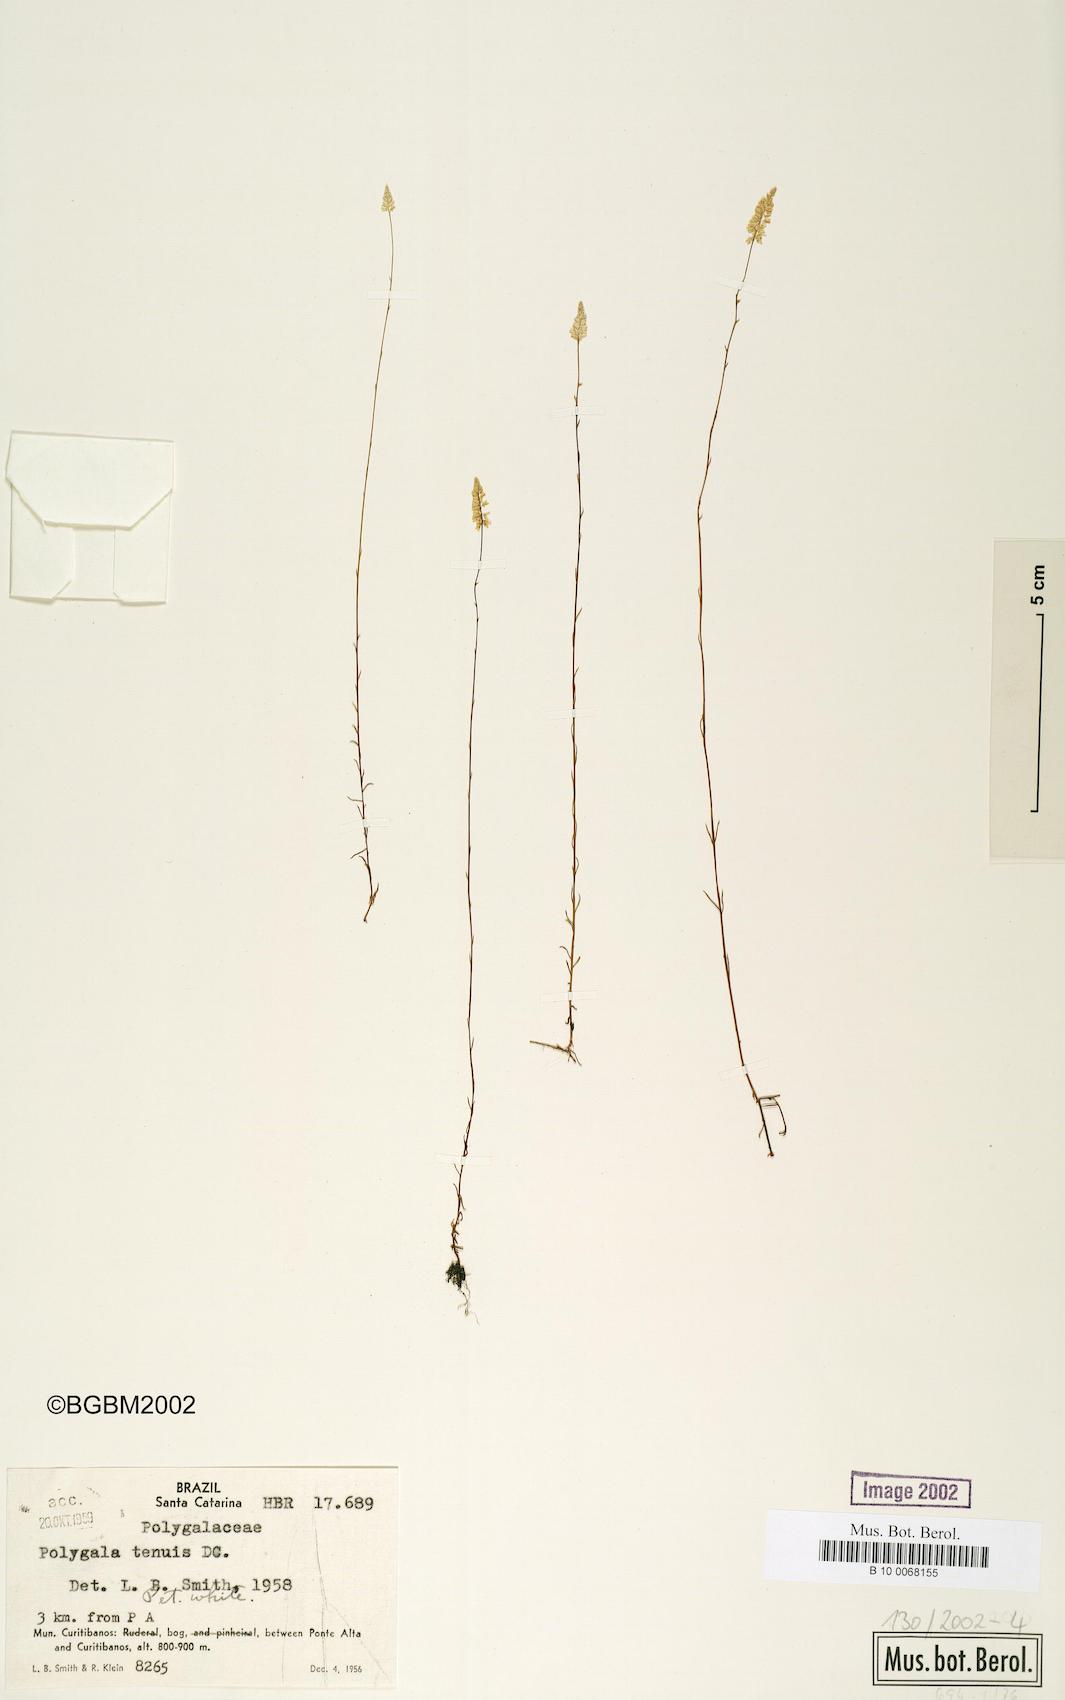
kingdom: Plantae
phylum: Tracheophyta
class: Magnoliopsida
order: Fabales
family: Polygalaceae
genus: Polygala
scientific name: Polygala tenuis
